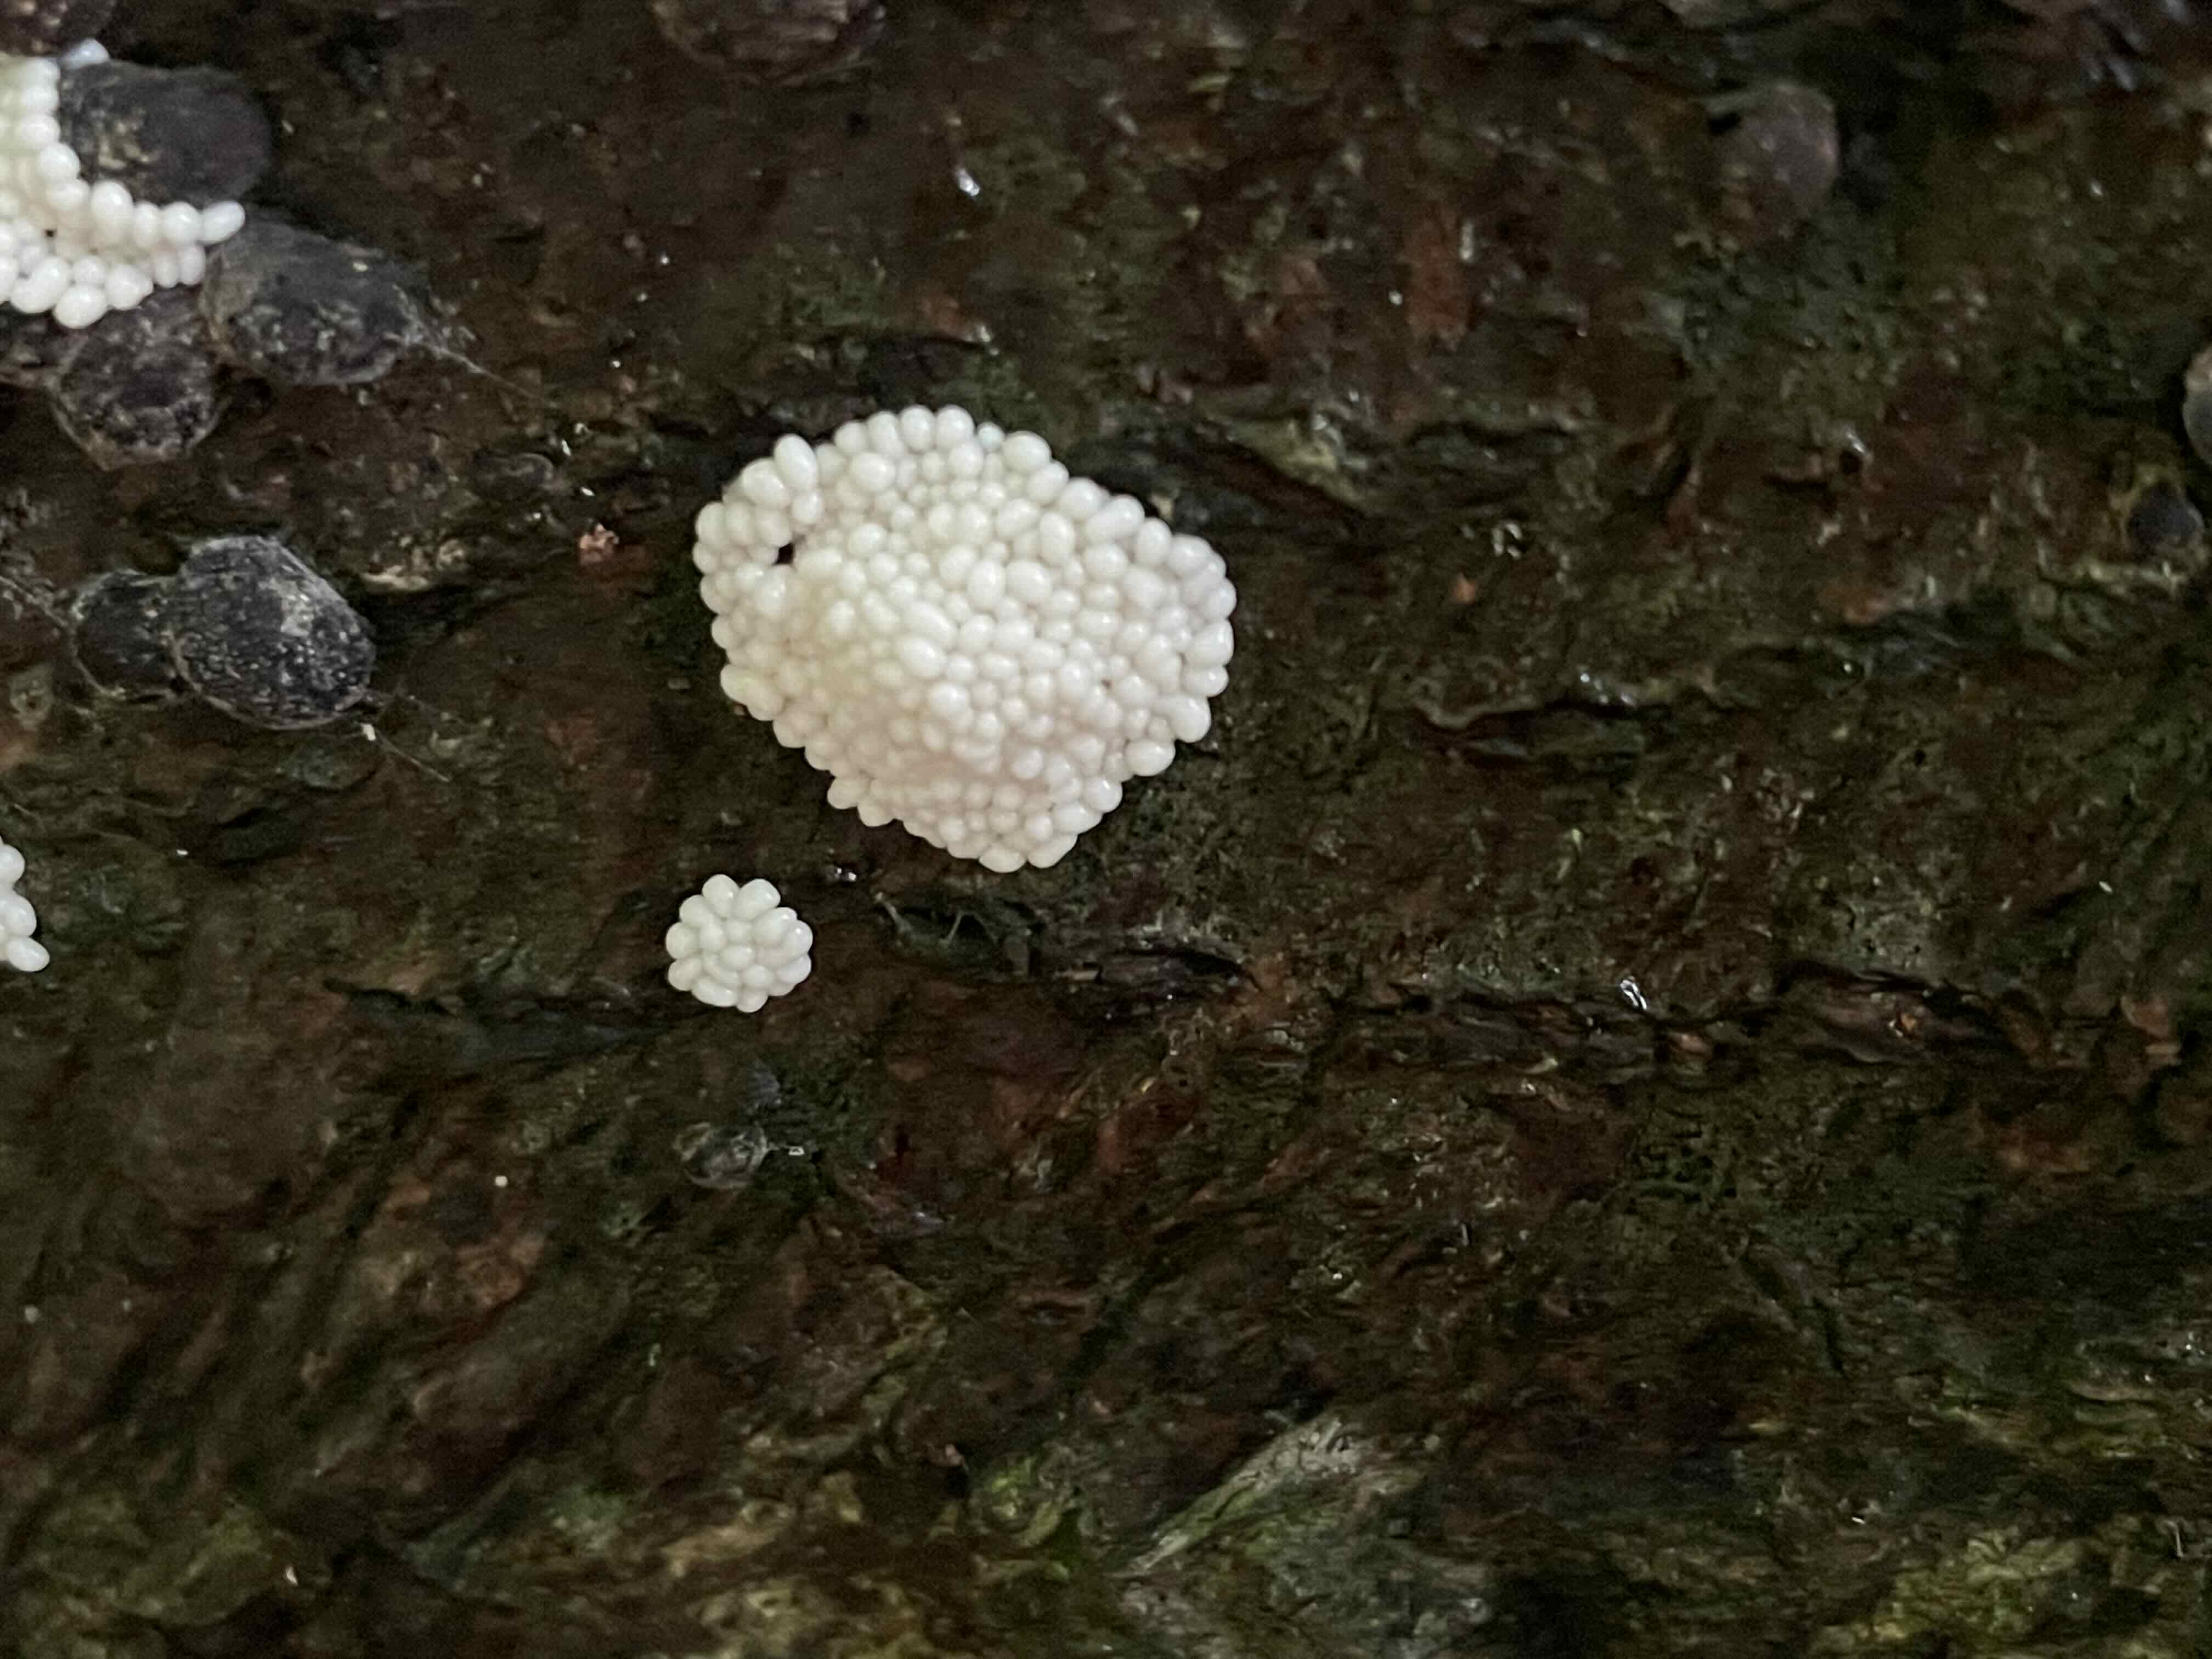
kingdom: Protozoa
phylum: Mycetozoa
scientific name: Mycetozoa
